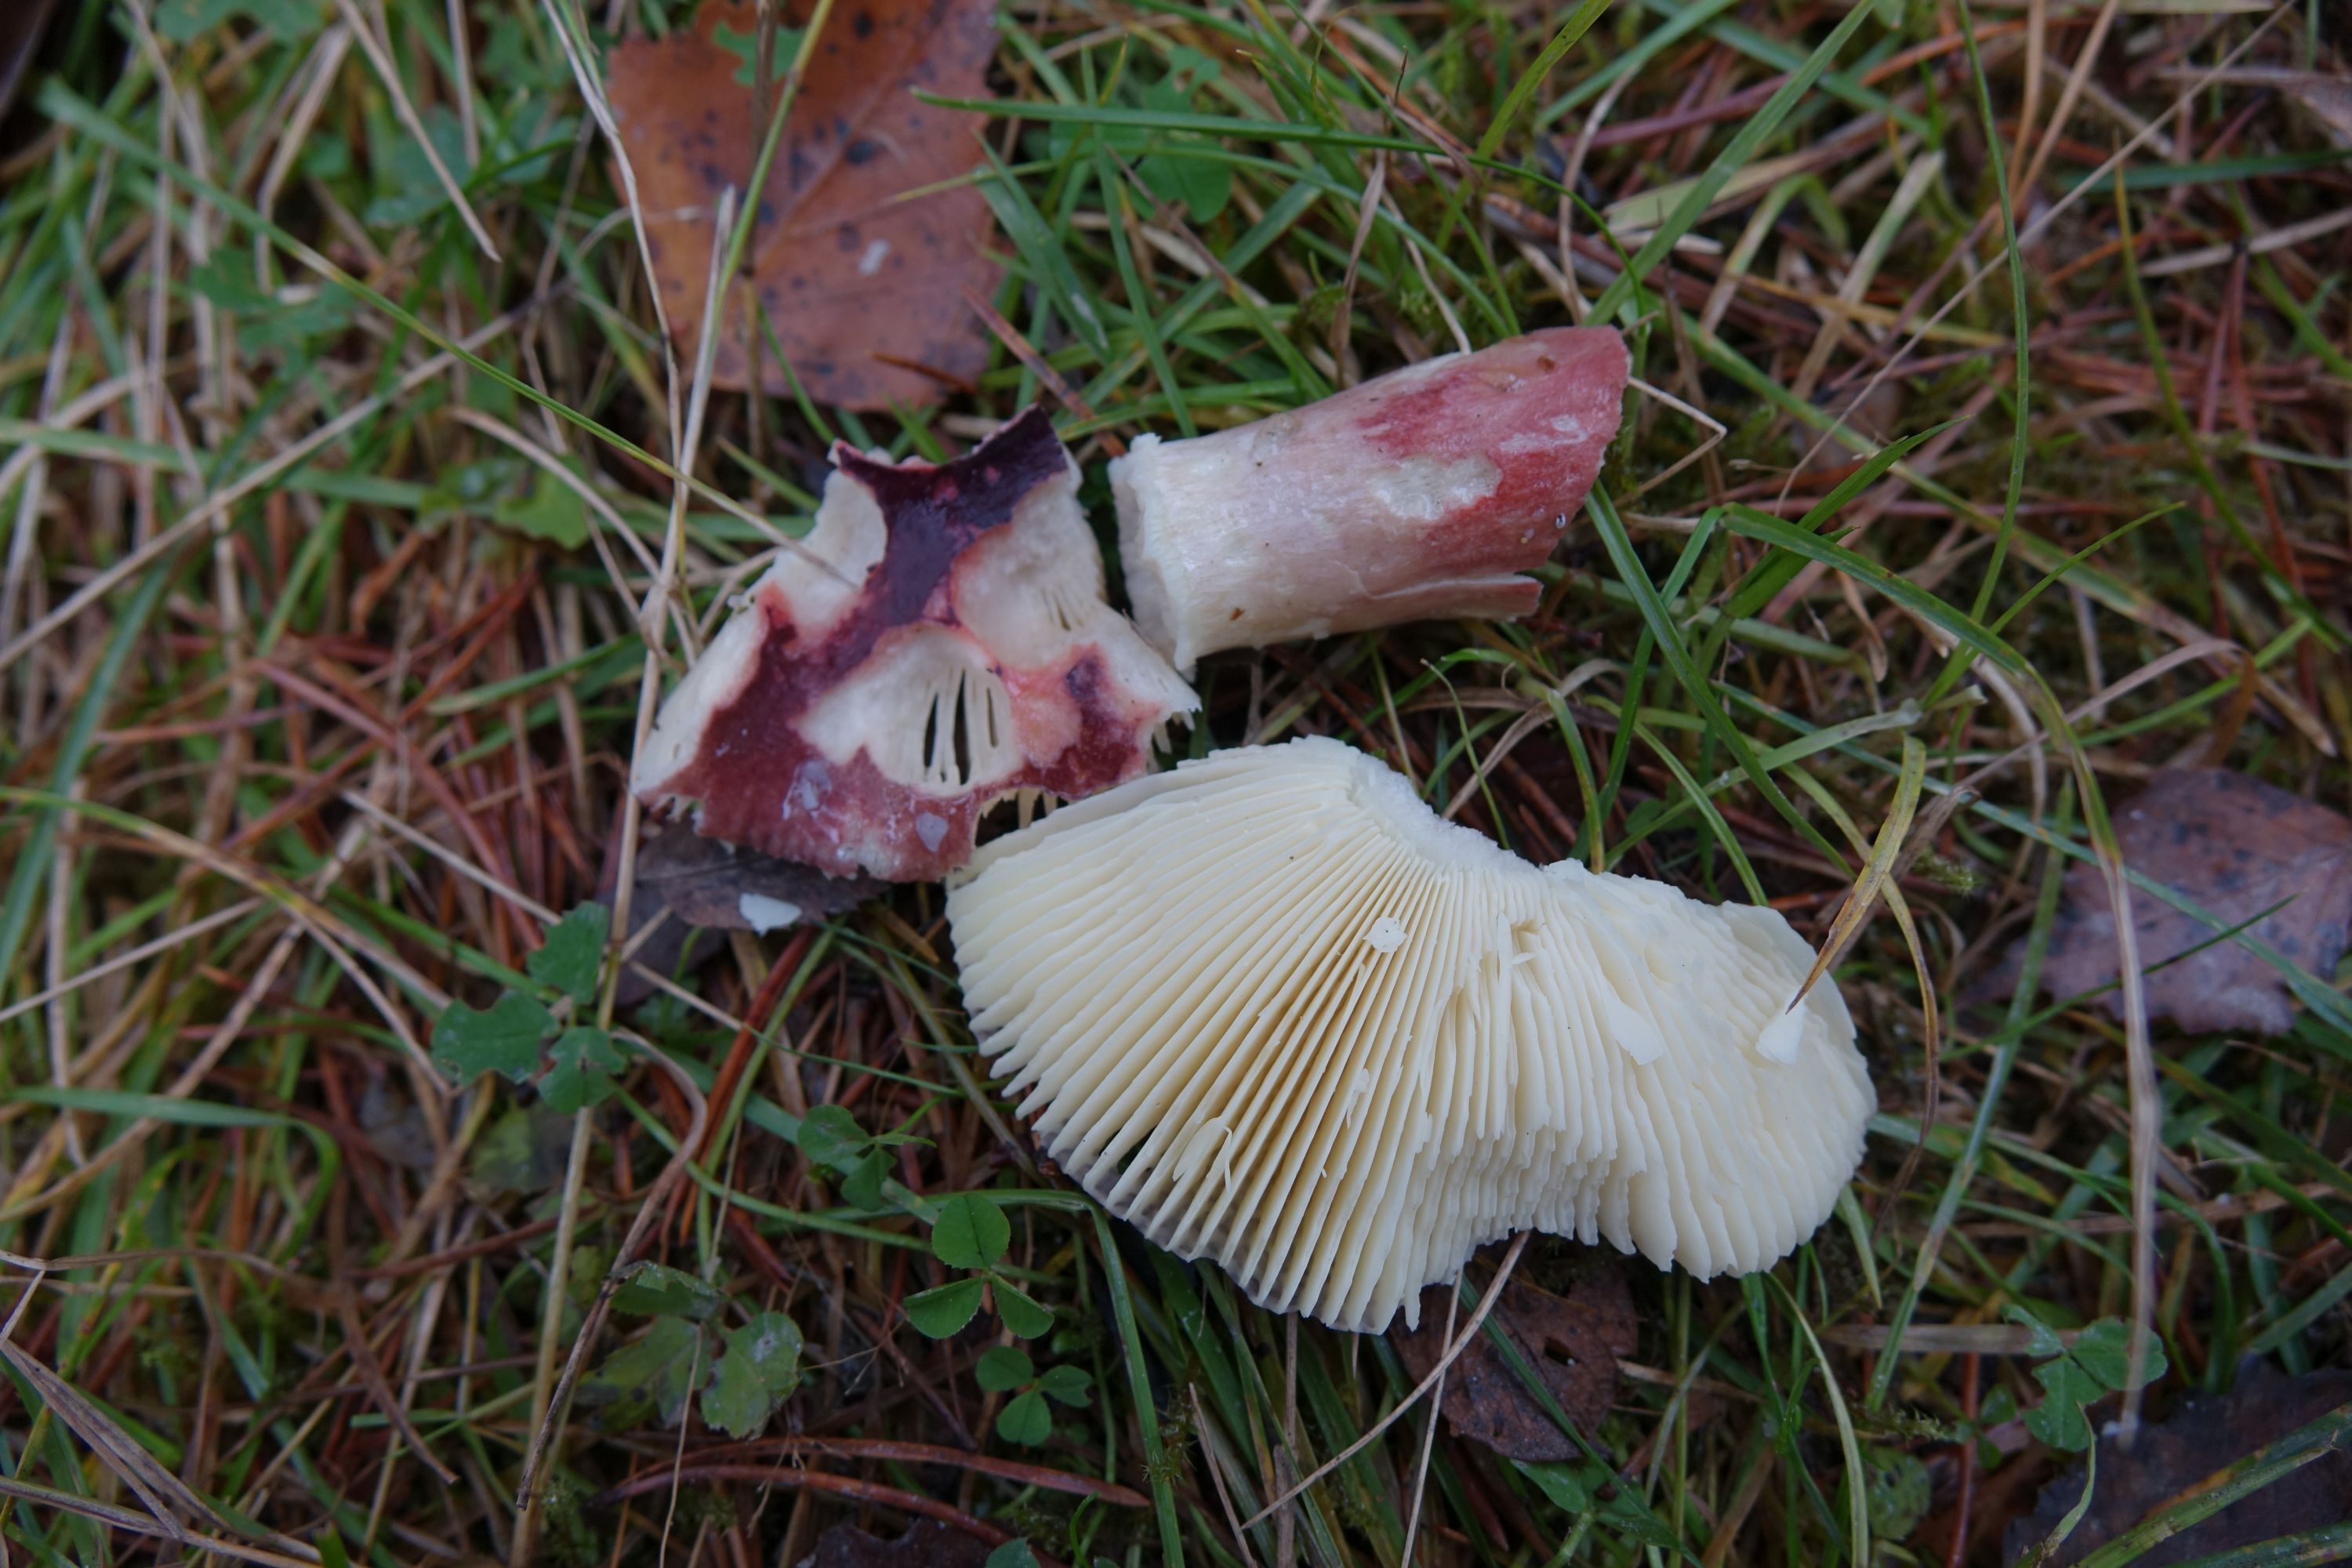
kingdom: Fungi
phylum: Basidiomycota
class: Agaricomycetes
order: Russulales
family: Russulaceae
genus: Russula
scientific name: Russula sardonia
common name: Primrose brittlegill
